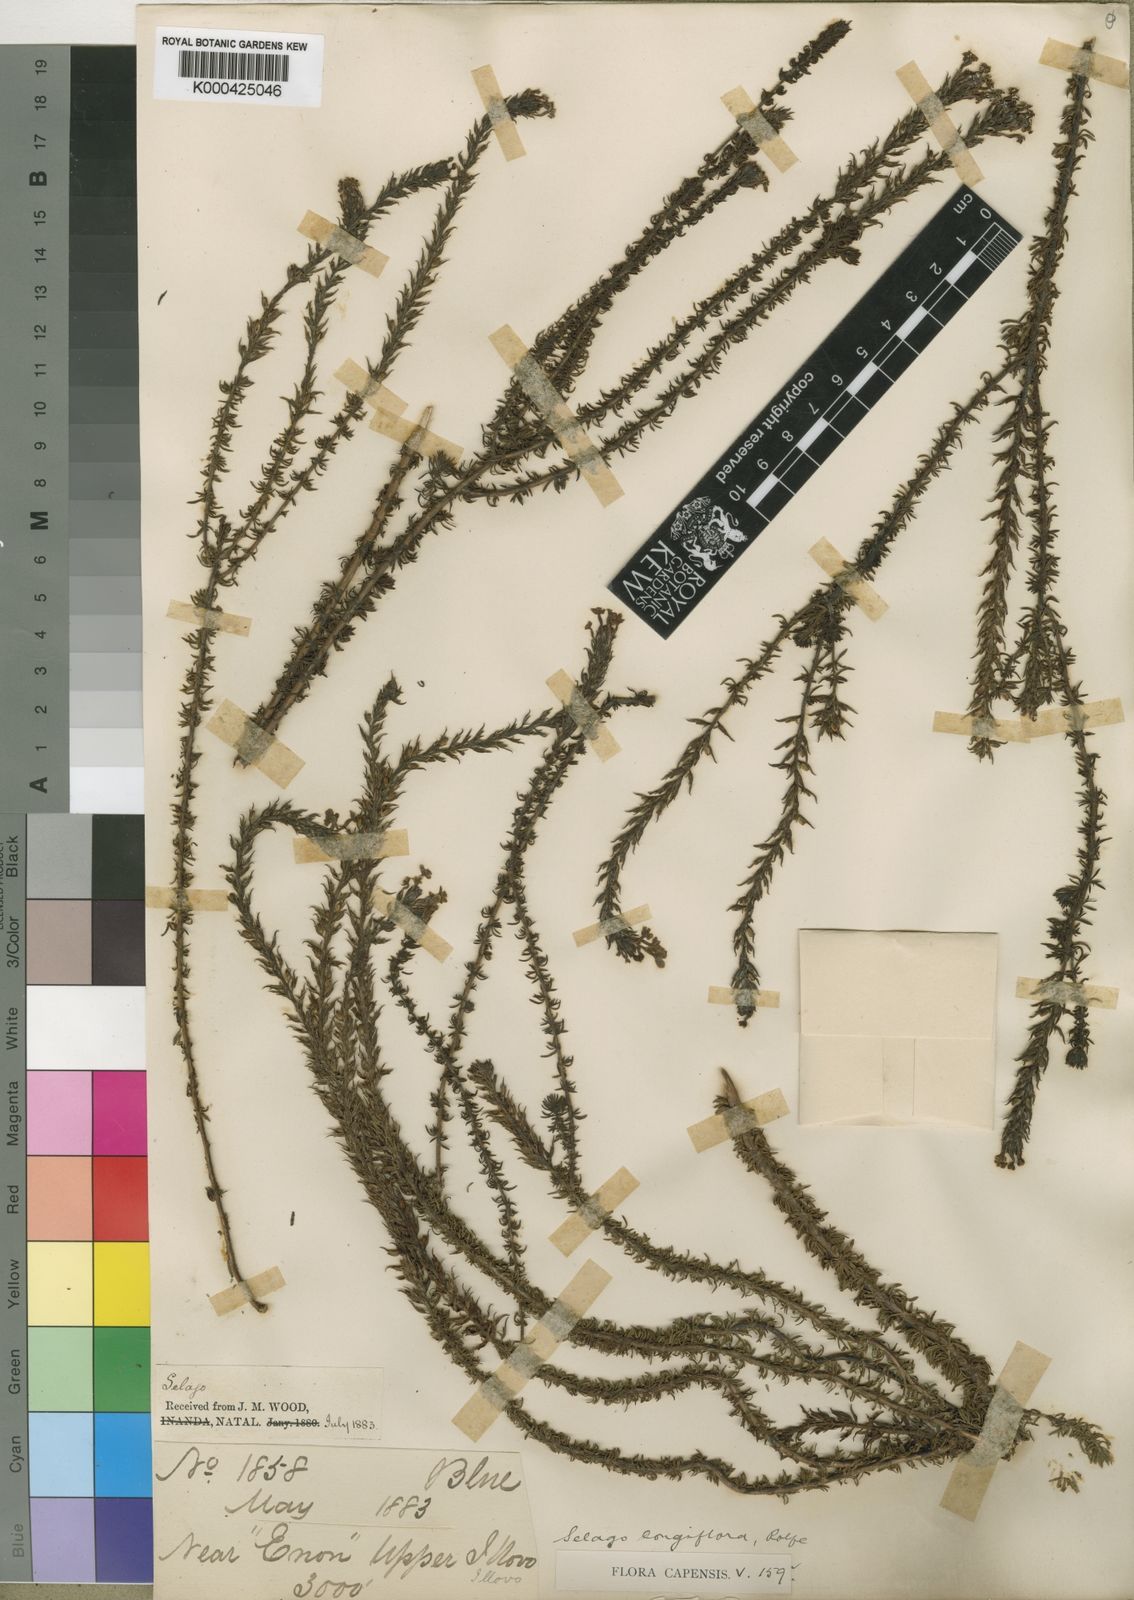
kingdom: Plantae
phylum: Tracheophyta
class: Magnoliopsida
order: Lamiales
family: Scrophulariaceae
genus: Selago
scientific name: Selago longiflora
